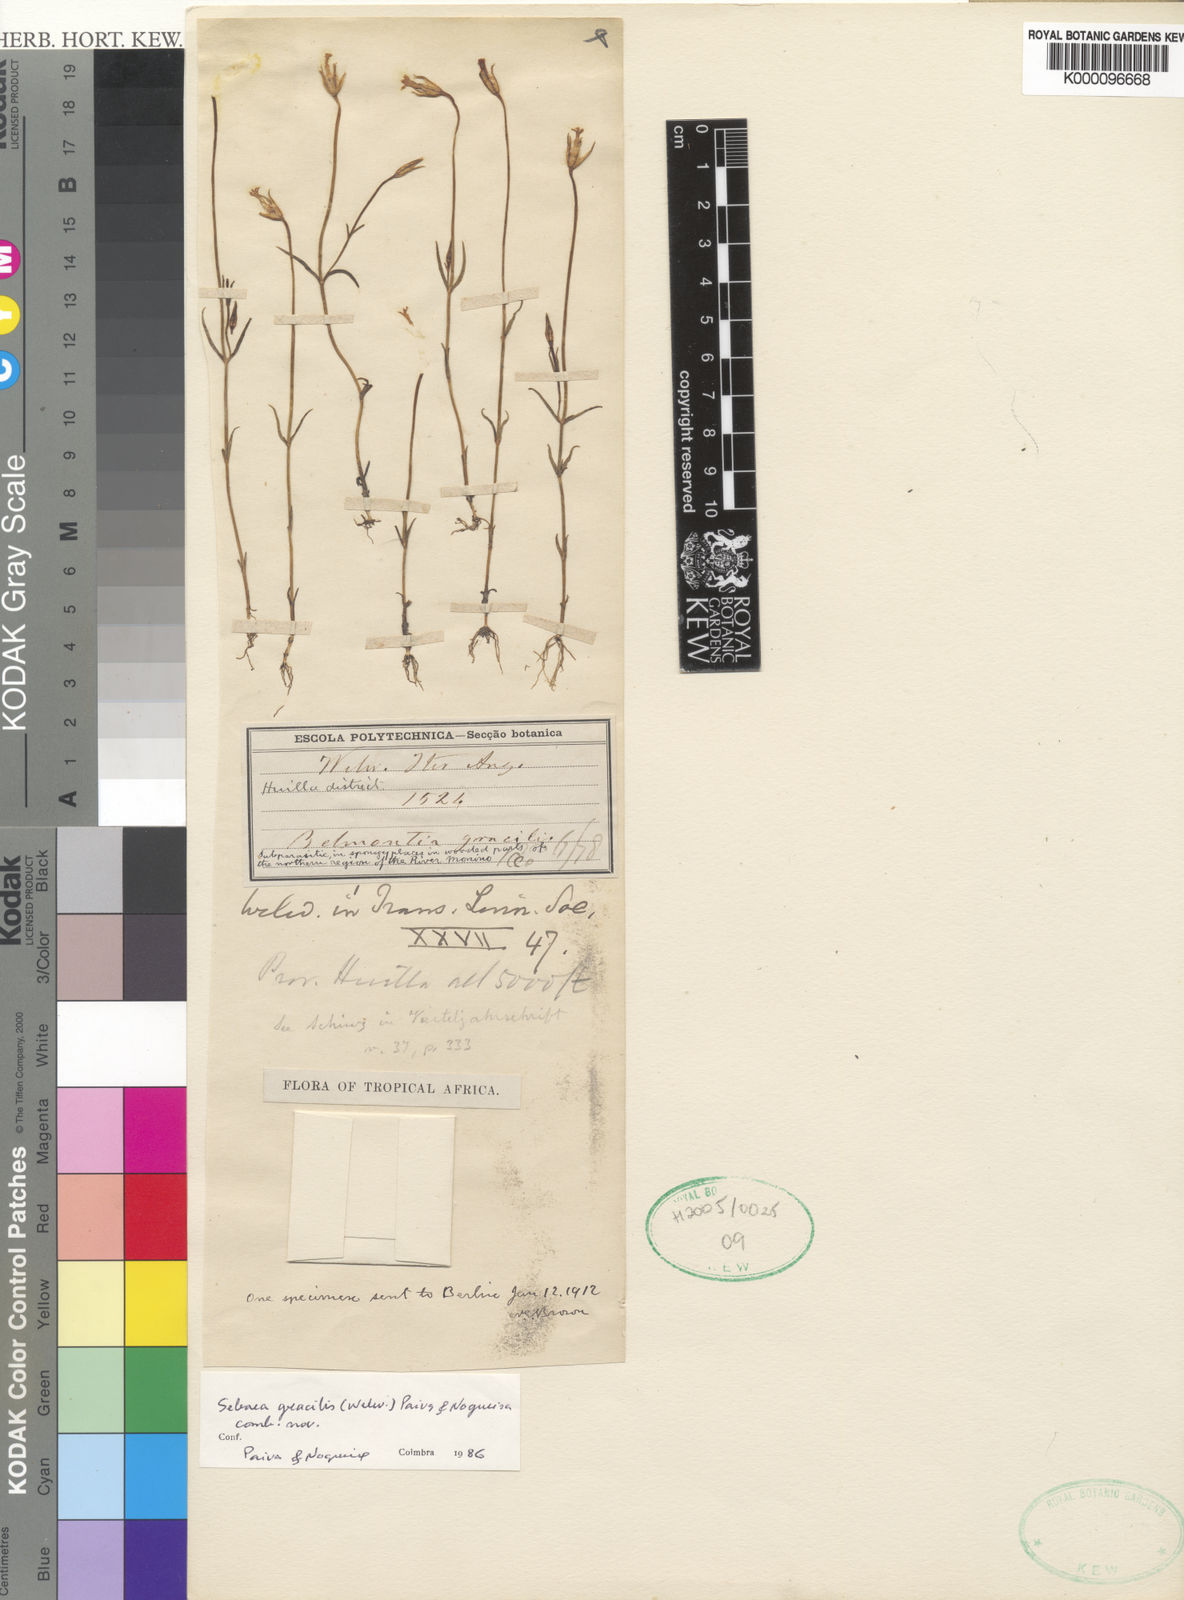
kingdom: Plantae
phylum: Tracheophyta
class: Magnoliopsida
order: Gentianales
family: Gentianaceae
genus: Exochaenium
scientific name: Exochaenium gracile
